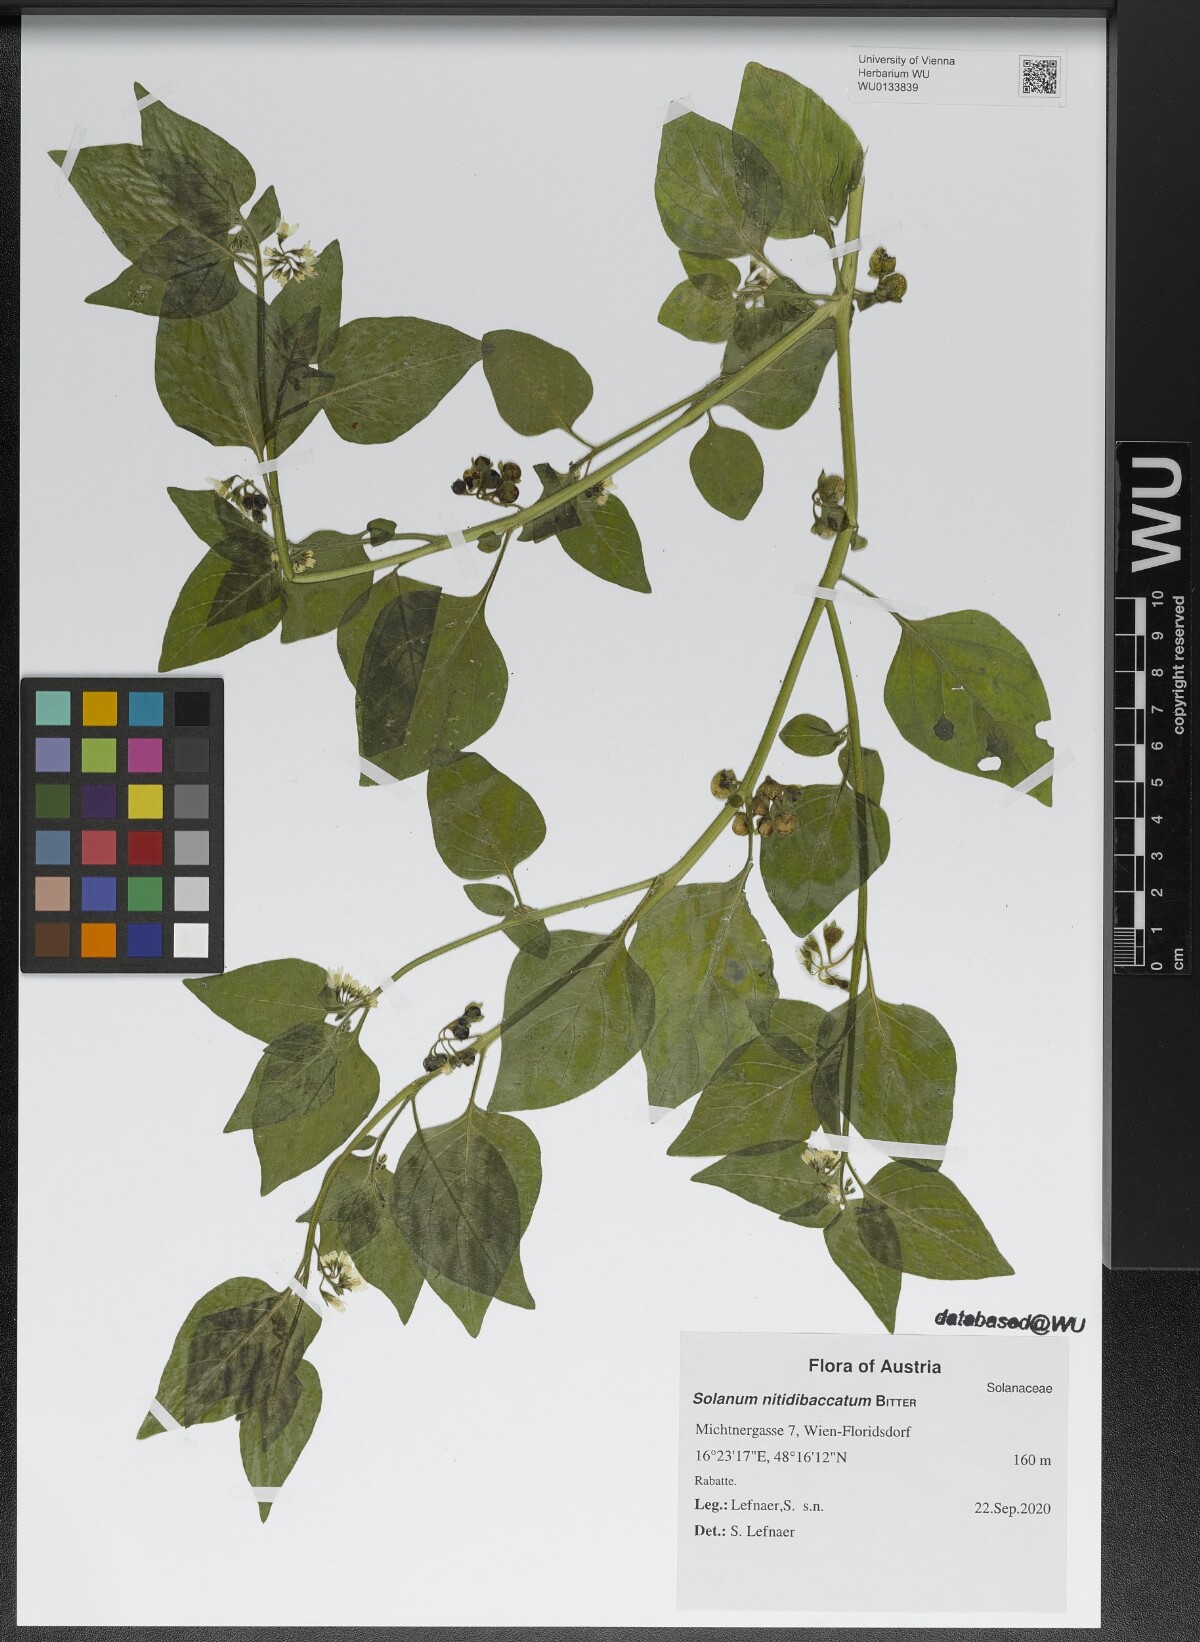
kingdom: Plantae
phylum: Tracheophyta
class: Magnoliopsida
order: Solanales
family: Solanaceae
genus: Solanum
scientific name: Solanum nitidibaccatum
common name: Hairy nightshade
